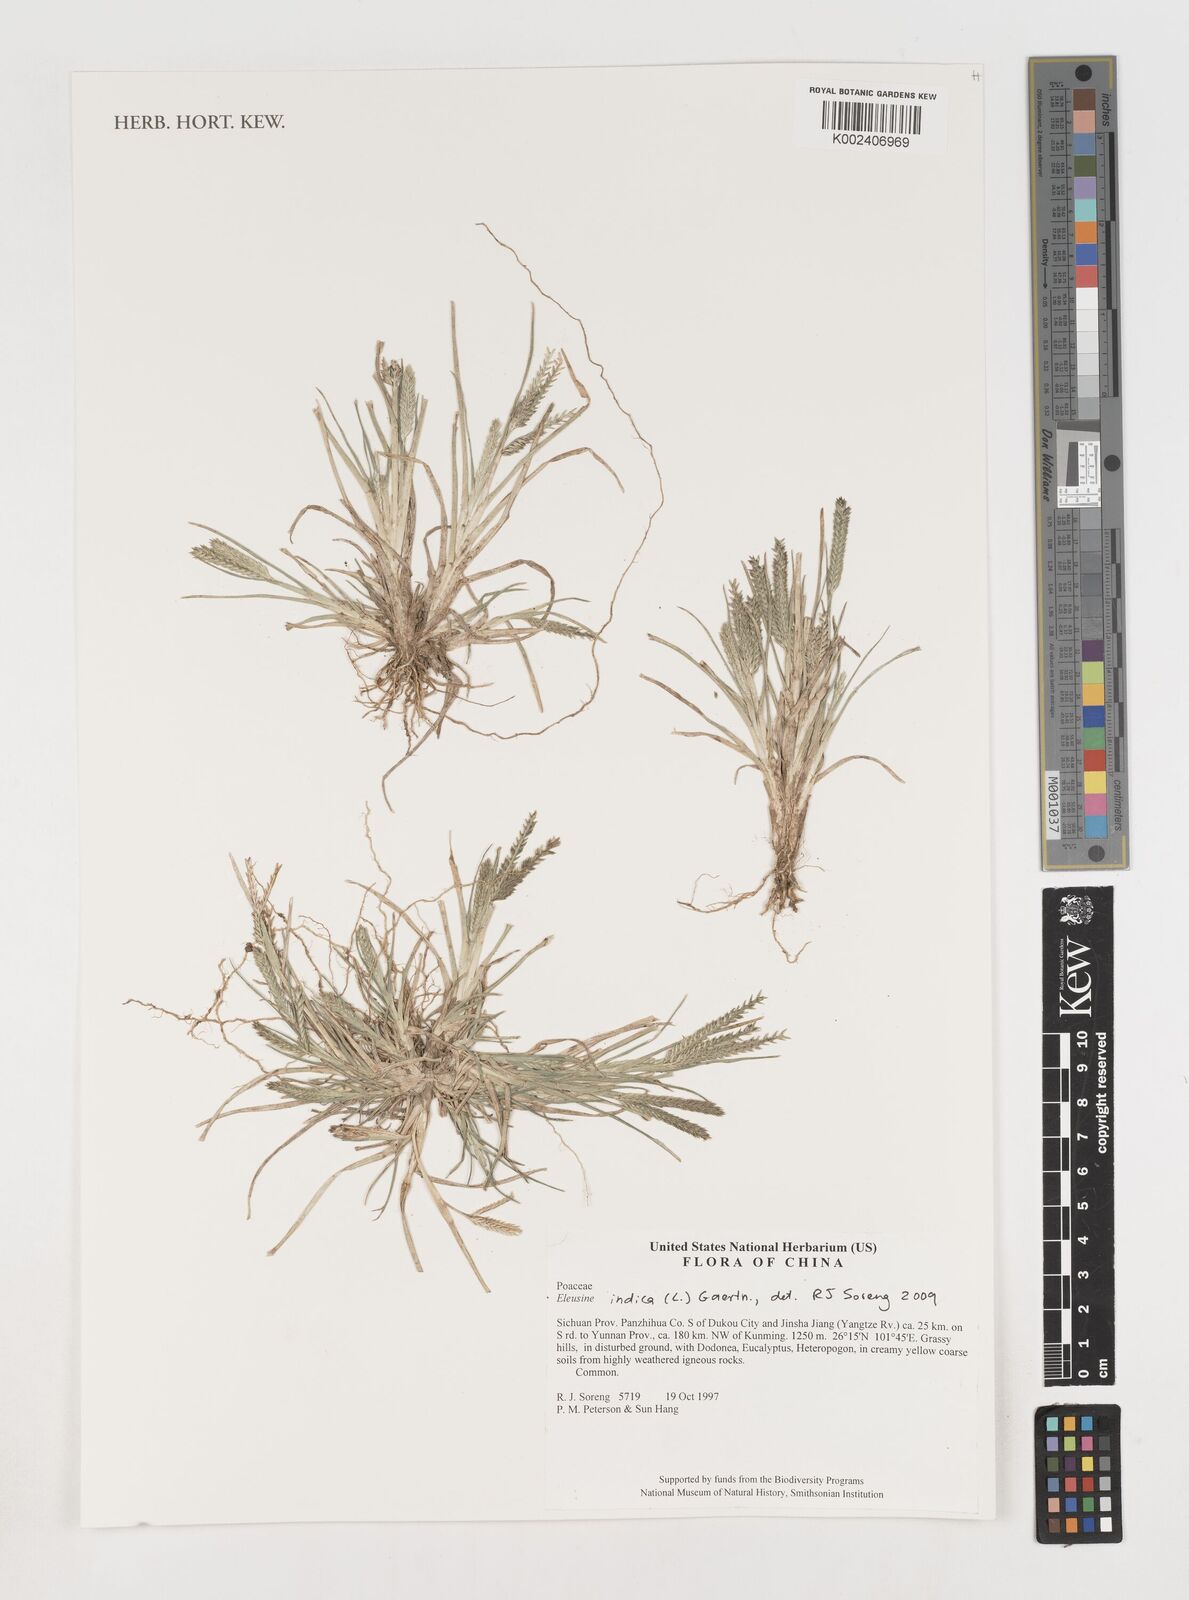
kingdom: Plantae
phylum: Tracheophyta
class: Liliopsida
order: Poales
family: Poaceae
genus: Eleusine
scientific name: Eleusine indica
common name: Yard-grass
